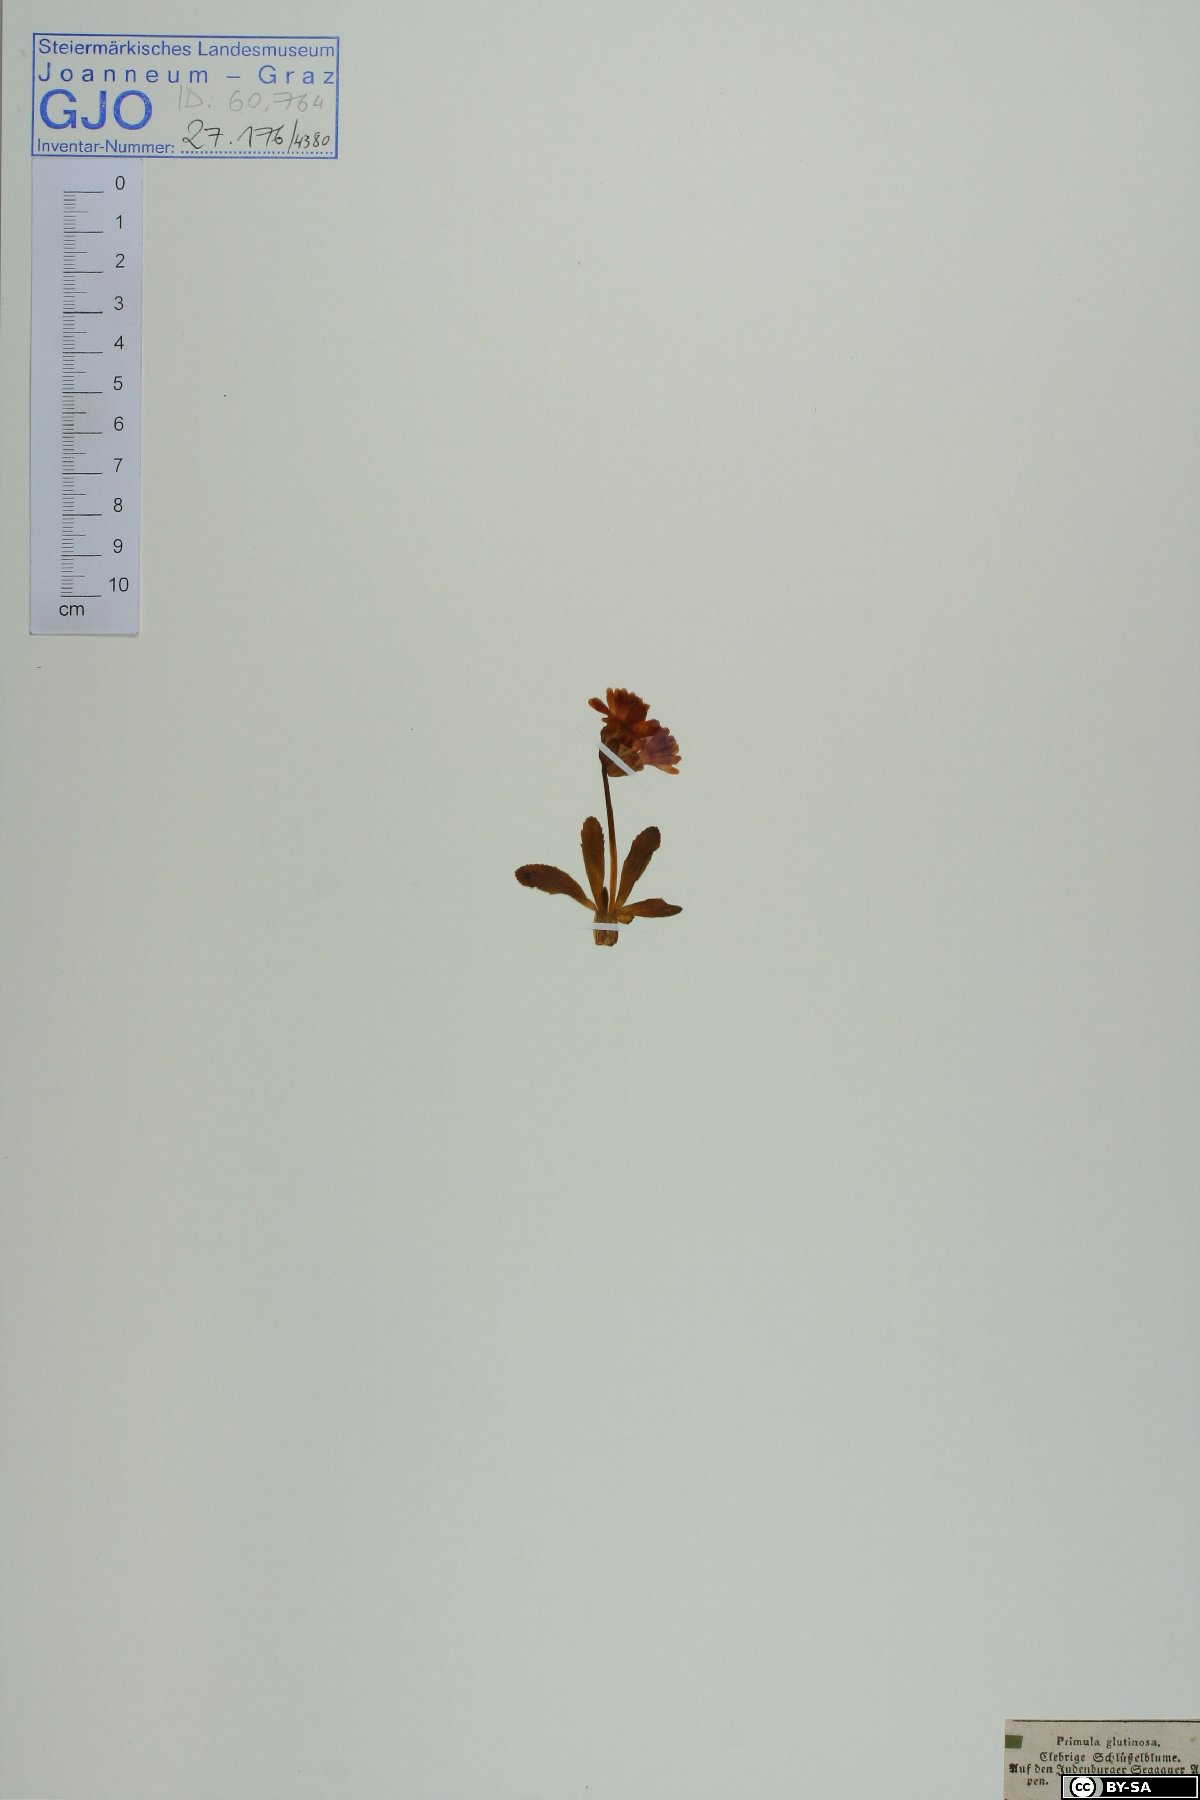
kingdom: Plantae
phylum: Tracheophyta
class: Magnoliopsida
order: Ericales
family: Primulaceae
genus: Primula
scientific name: Primula glutinosa
